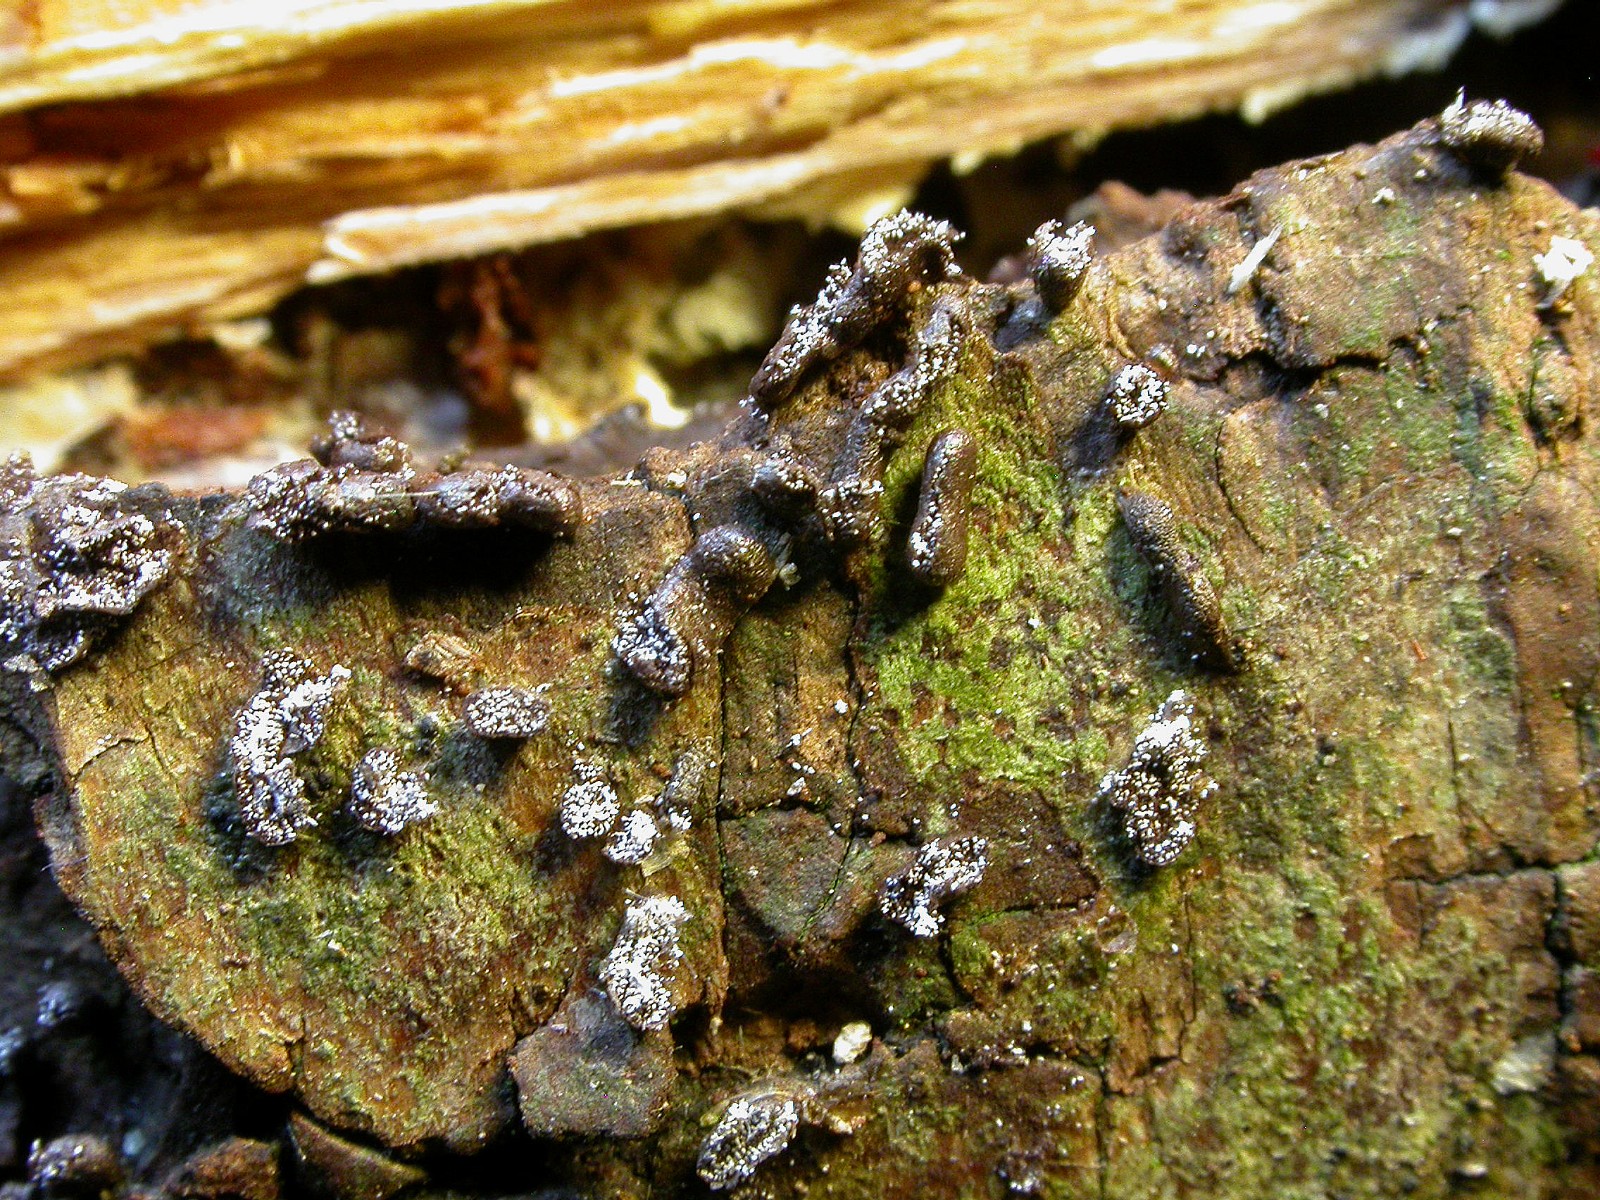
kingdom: Protozoa
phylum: Mycetozoa
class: Myxomycetes
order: Physarales
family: Physaraceae
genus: Physarum
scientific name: Physarum bitectum
